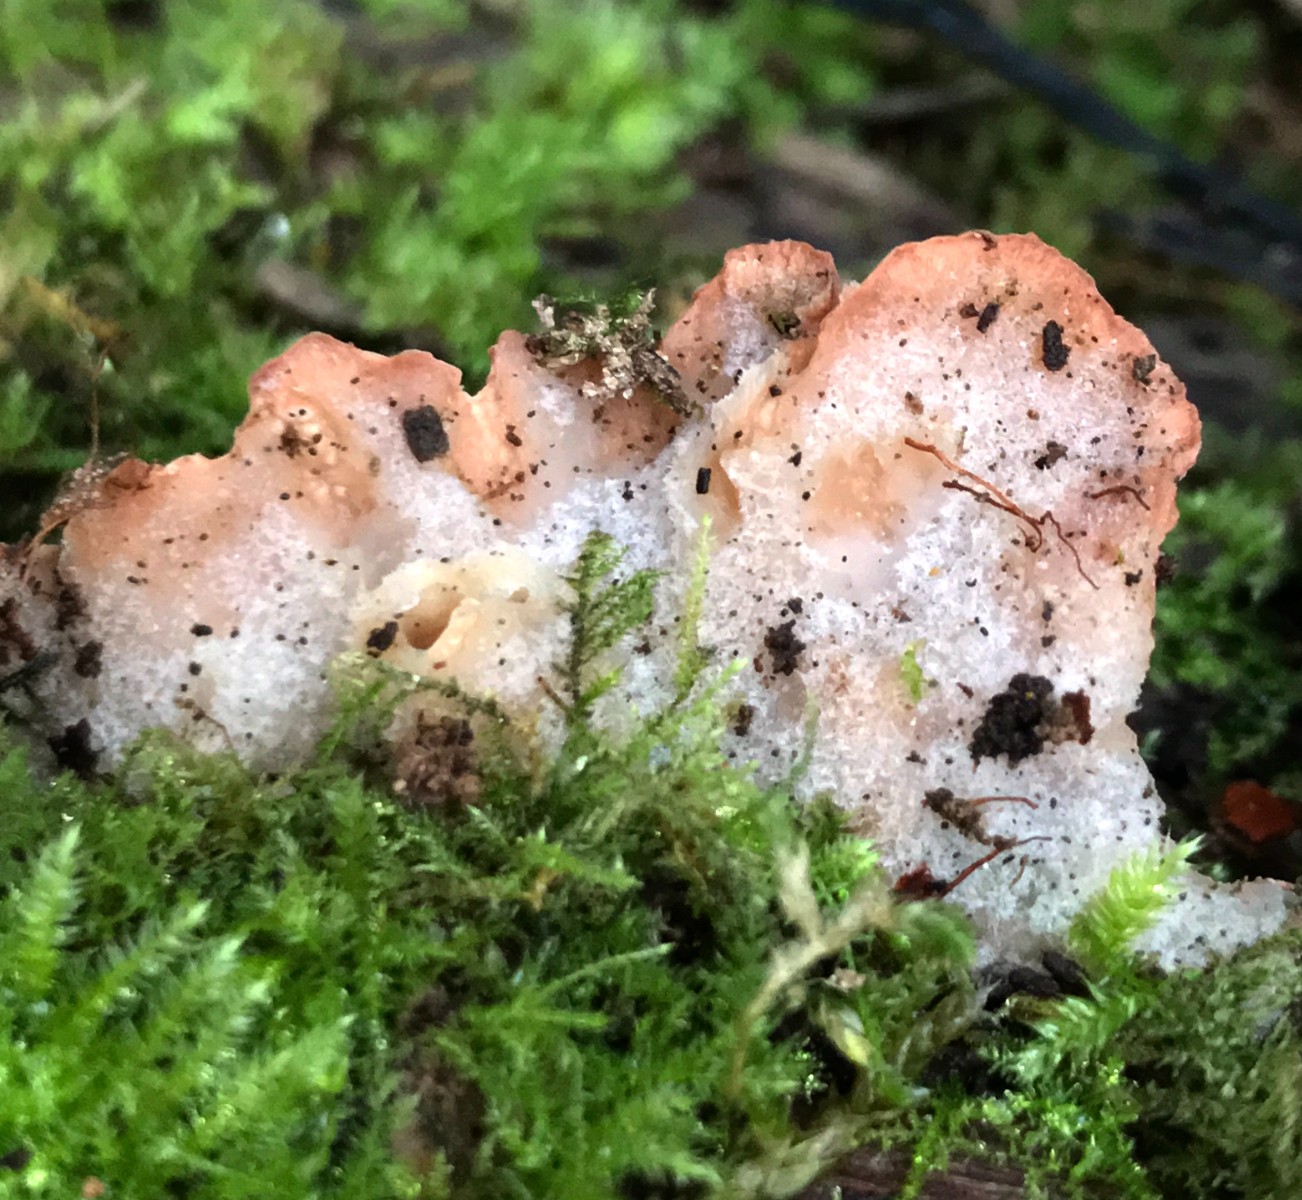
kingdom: Fungi
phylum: Basidiomycota
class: Agaricomycetes
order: Polyporales
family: Meruliaceae
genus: Phlebia
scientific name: Phlebia tremellosa
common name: bævrende åresvamp
